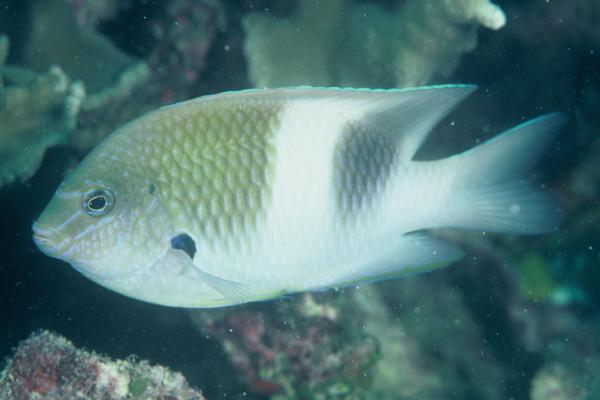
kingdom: Animalia
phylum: Chordata
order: Perciformes
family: Pomacentridae
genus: Dischistodus
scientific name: Dischistodus prosopotaenia
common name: Honey-head damsel
